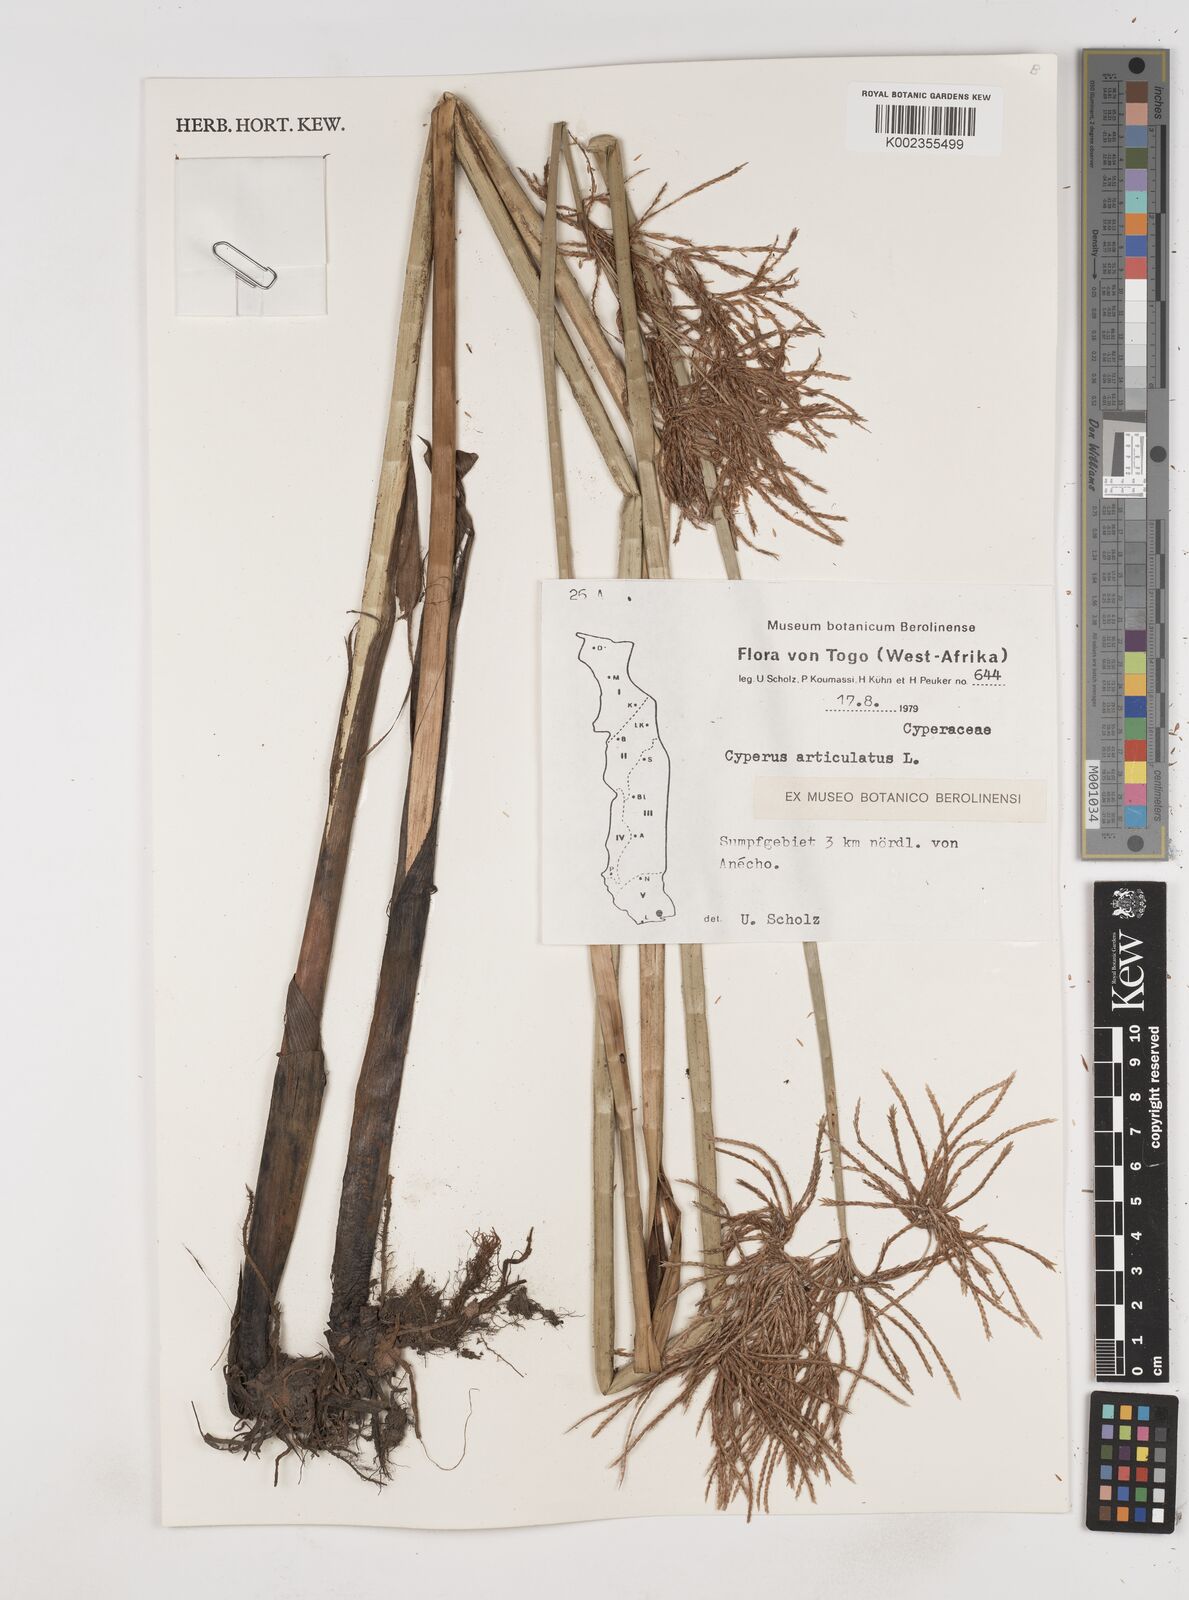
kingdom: Plantae
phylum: Tracheophyta
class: Liliopsida
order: Poales
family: Cyperaceae
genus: Cyperus
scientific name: Cyperus articulatus
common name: Jointed flatsedge
